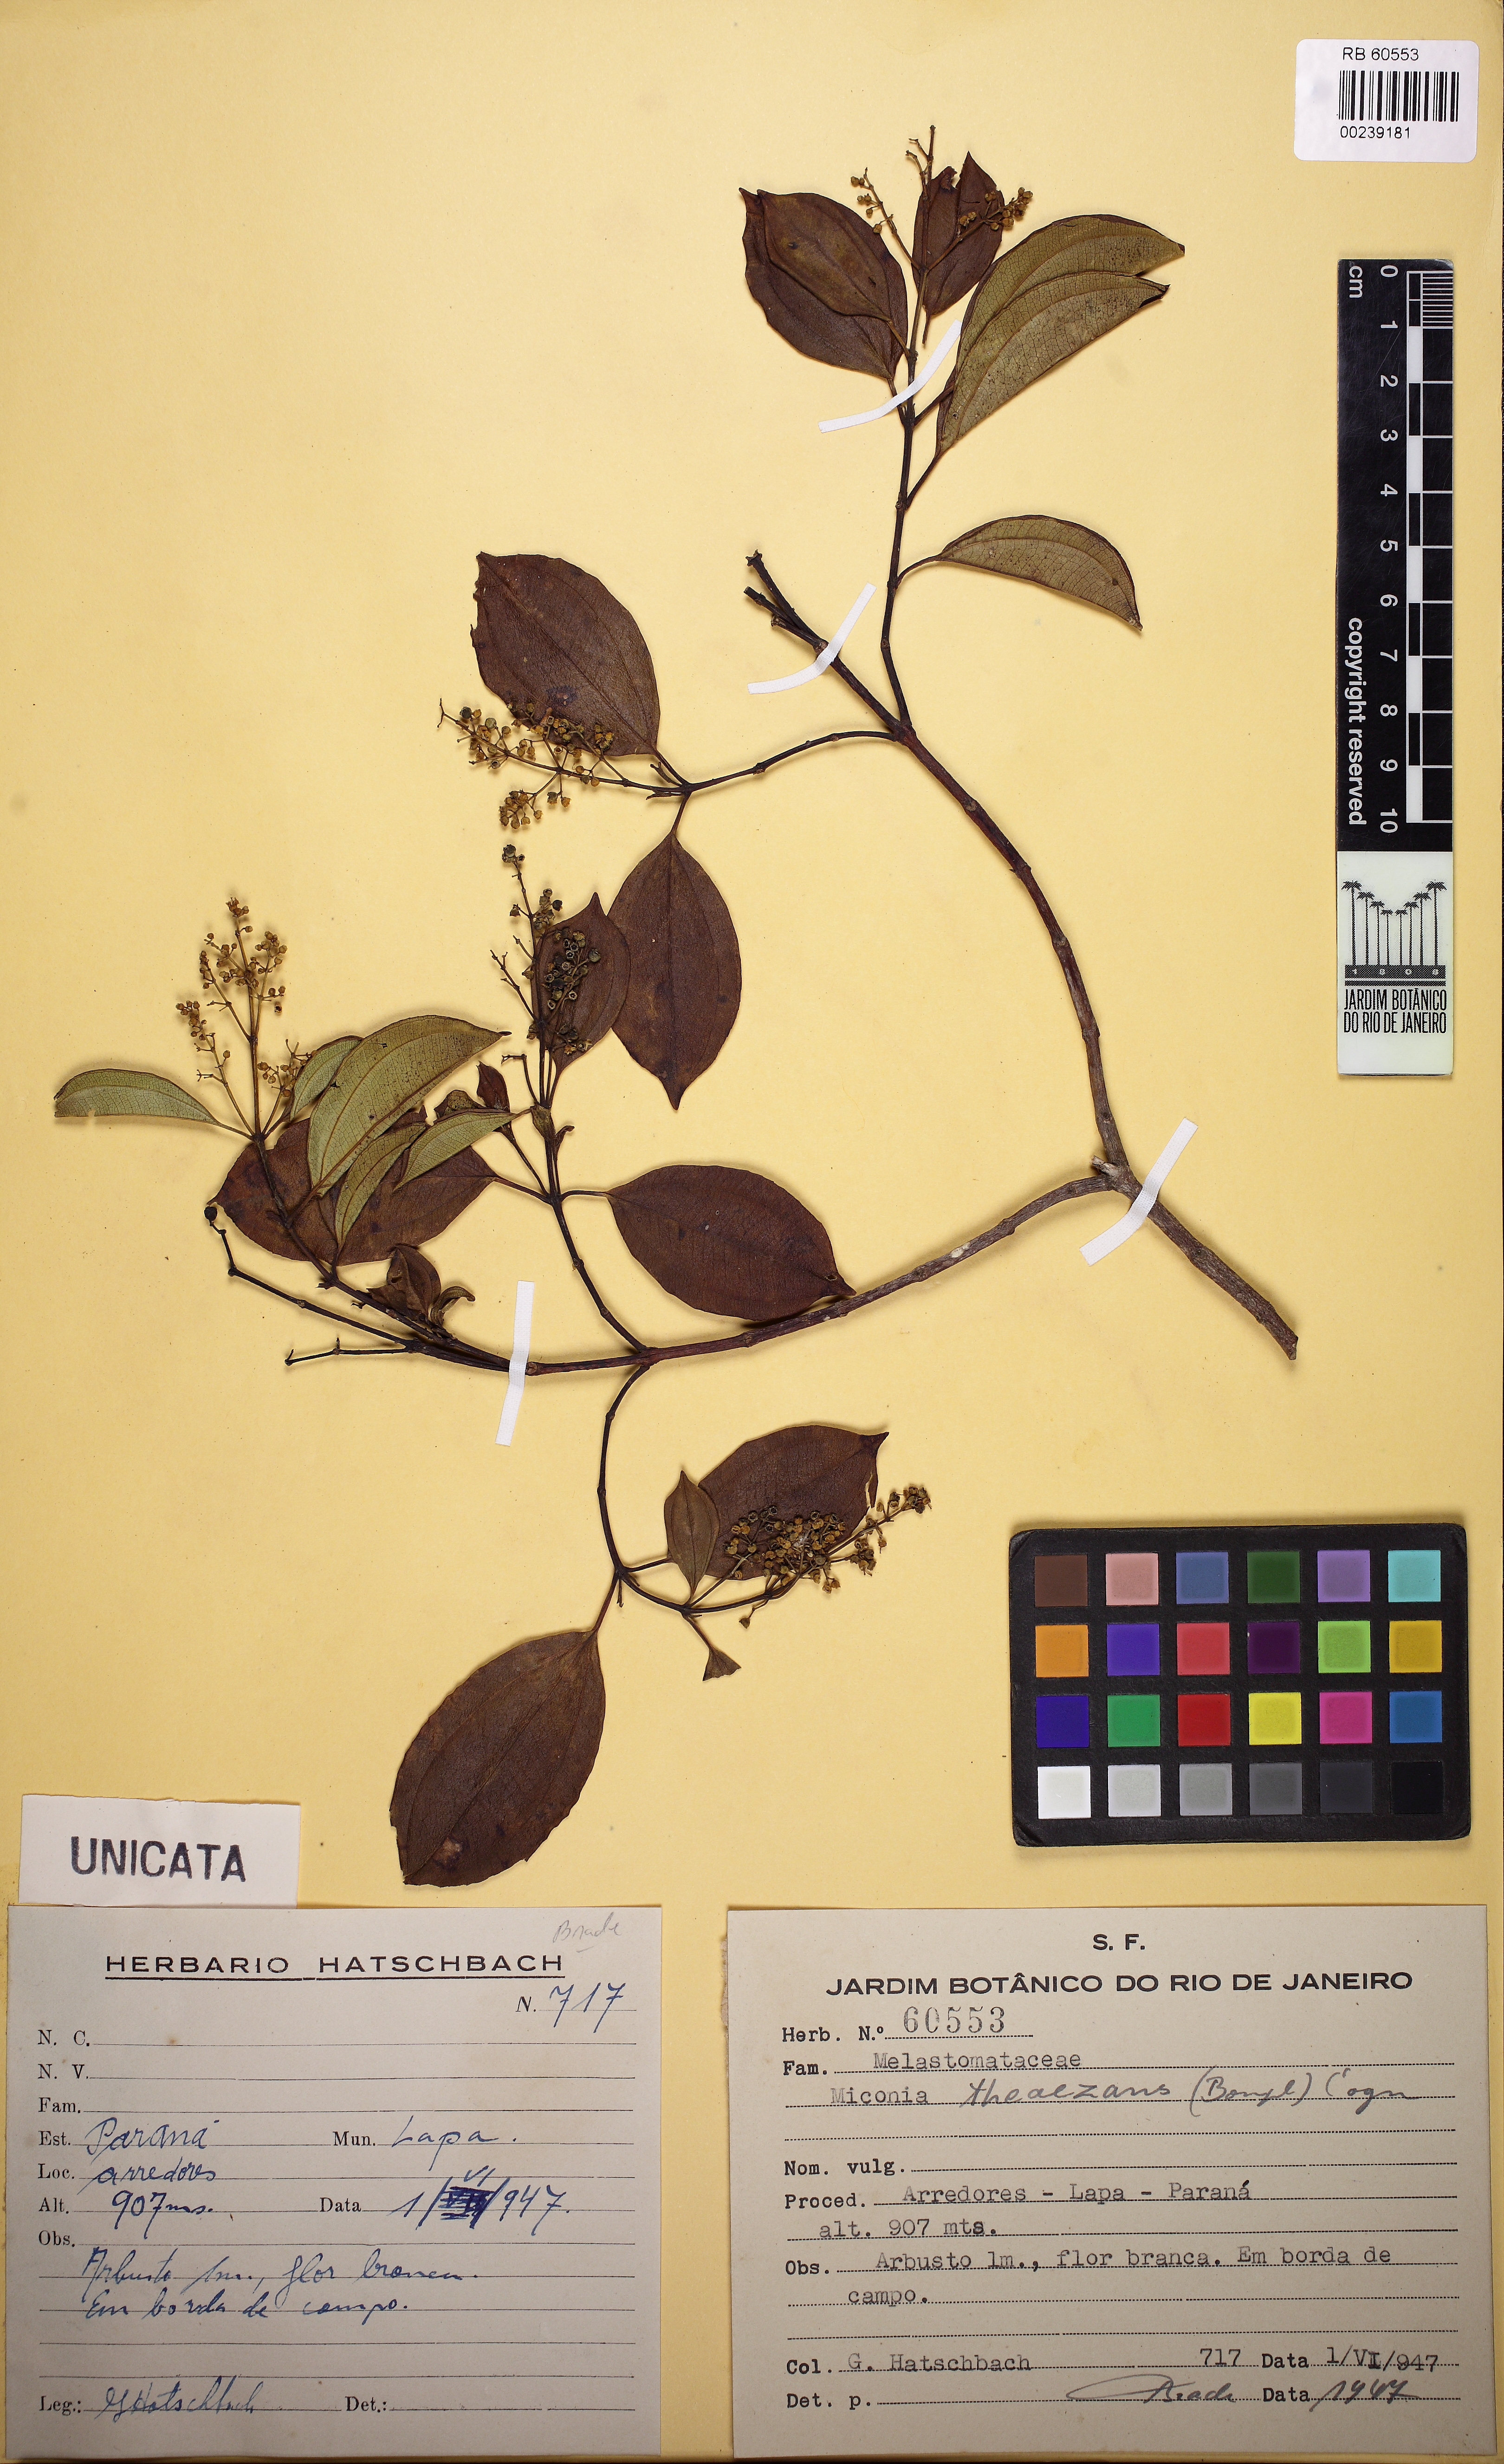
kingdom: Plantae
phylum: Tracheophyta
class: Magnoliopsida
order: Myrtales
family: Melastomataceae
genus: Miconia
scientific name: Miconia theizans
